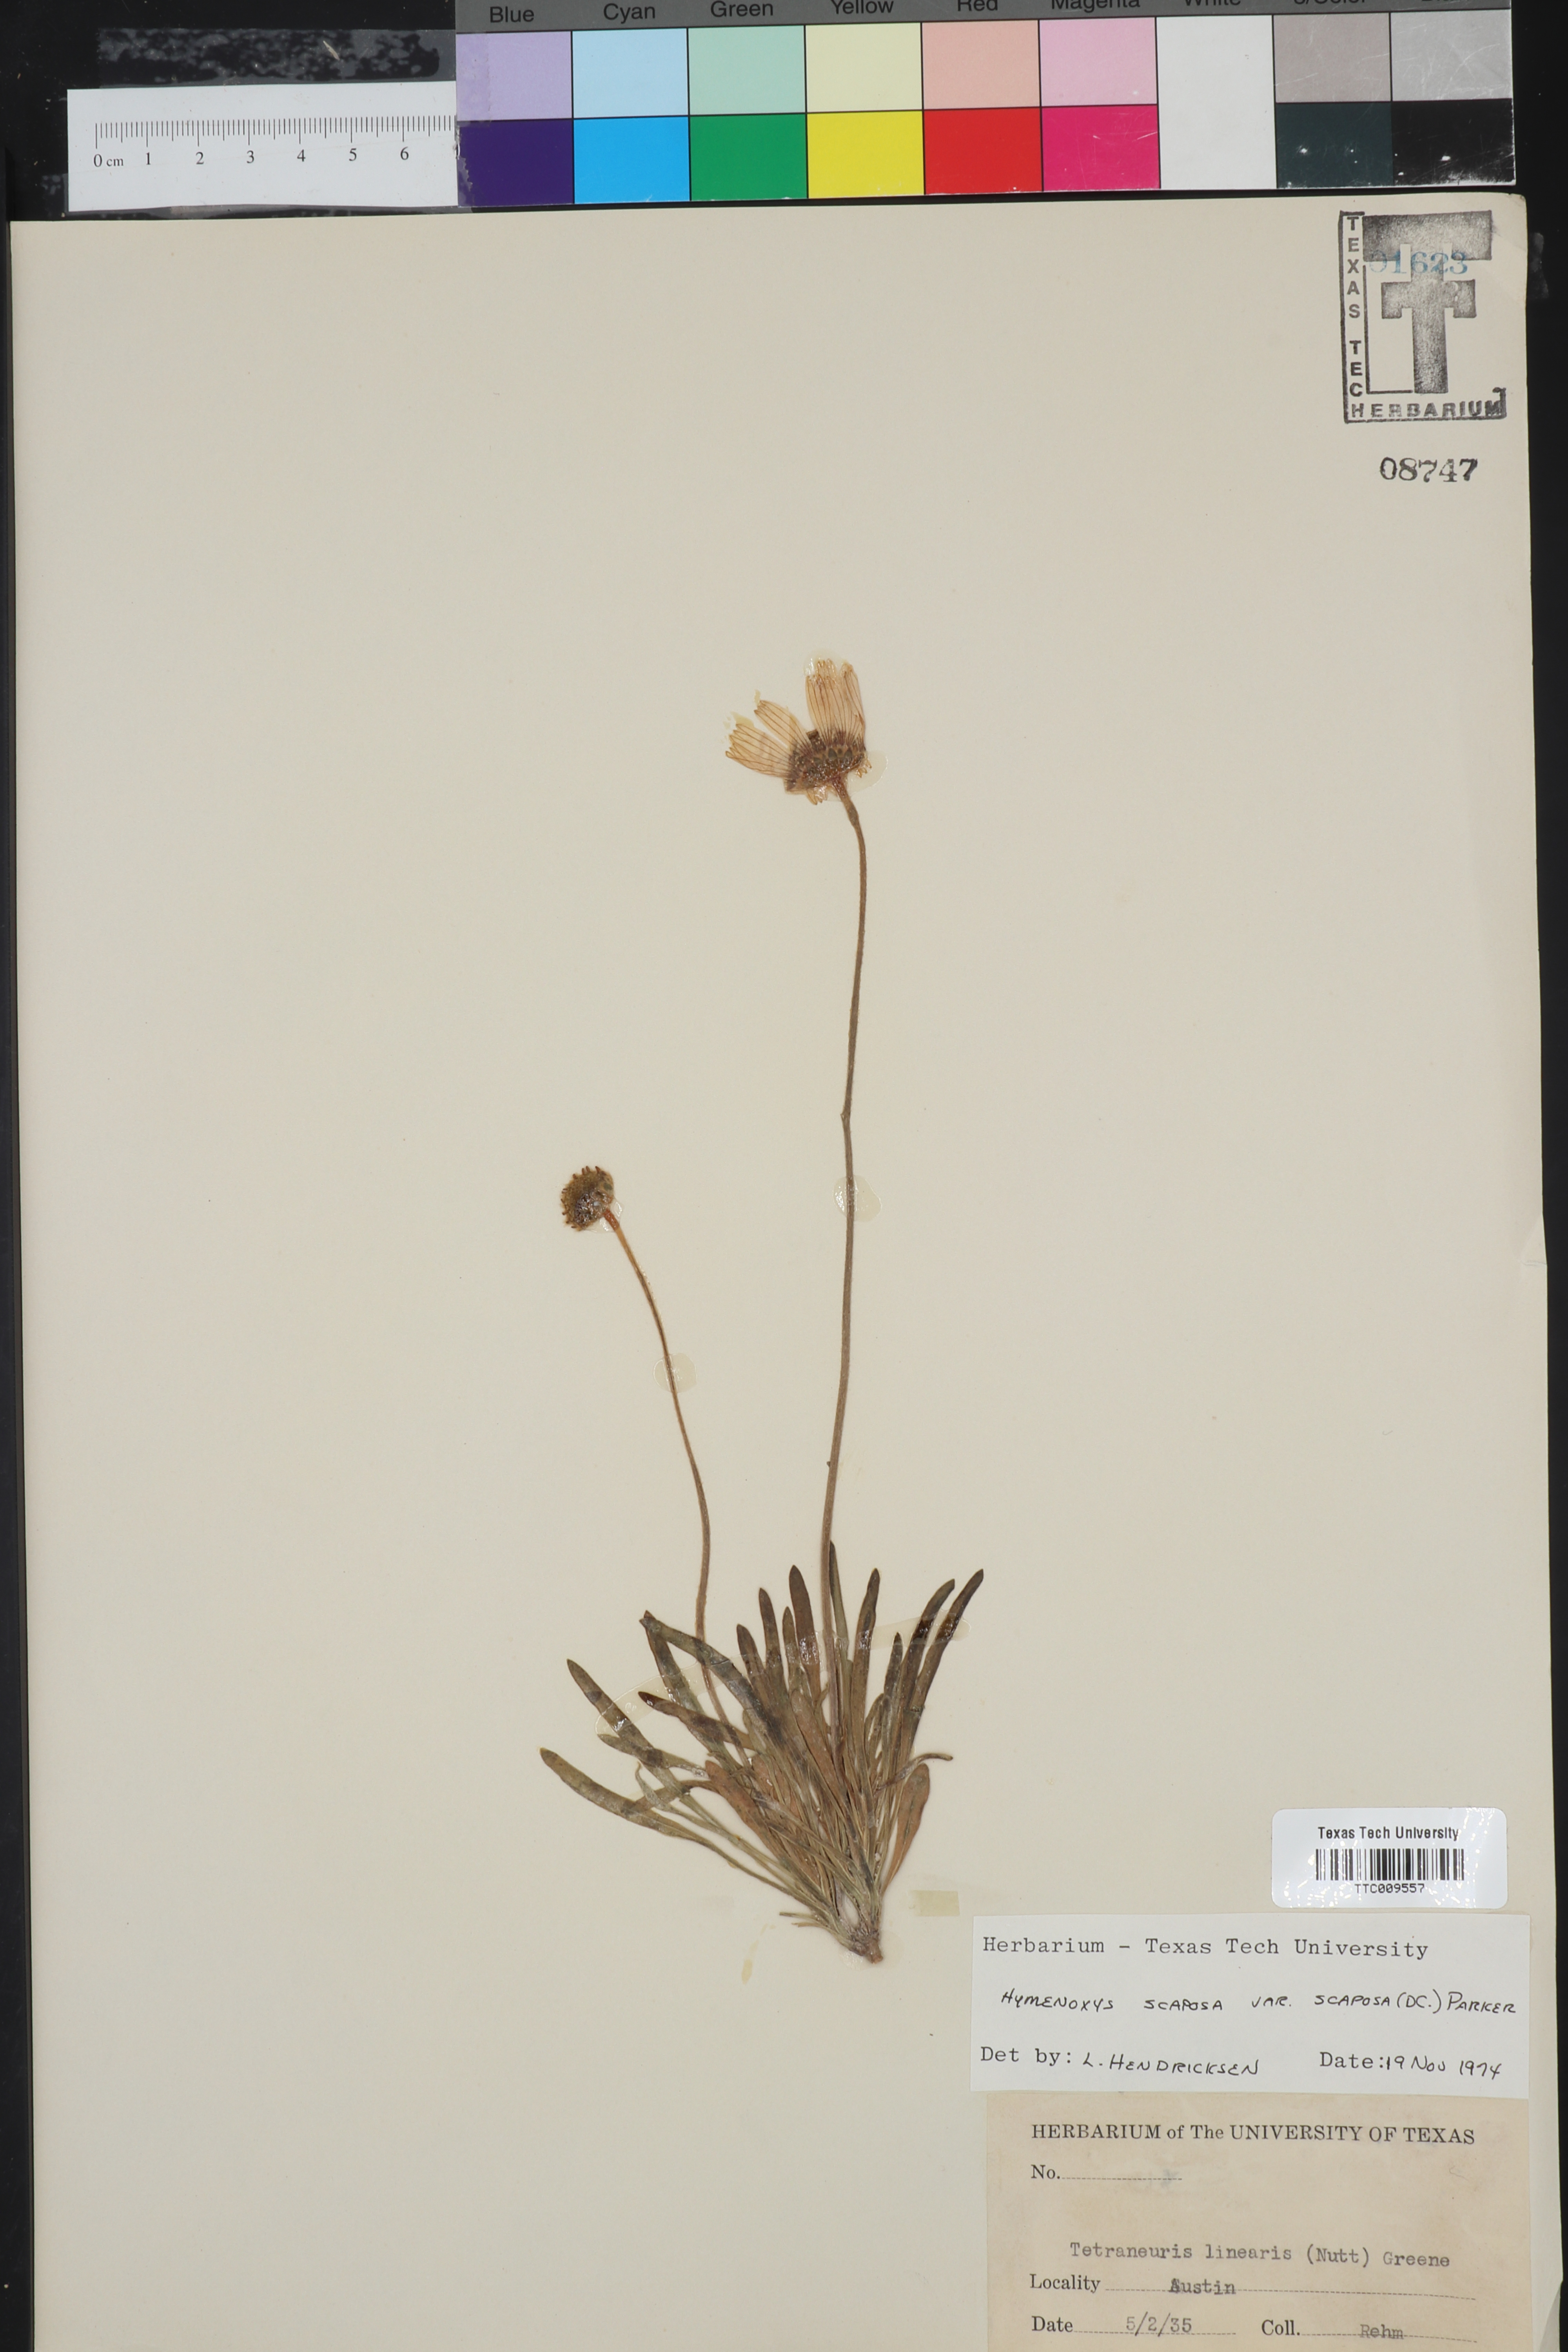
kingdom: Plantae
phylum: Tracheophyta
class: Magnoliopsida
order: Asterales
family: Asteraceae
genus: Tetraneuris
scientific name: Tetraneuris scaposa
